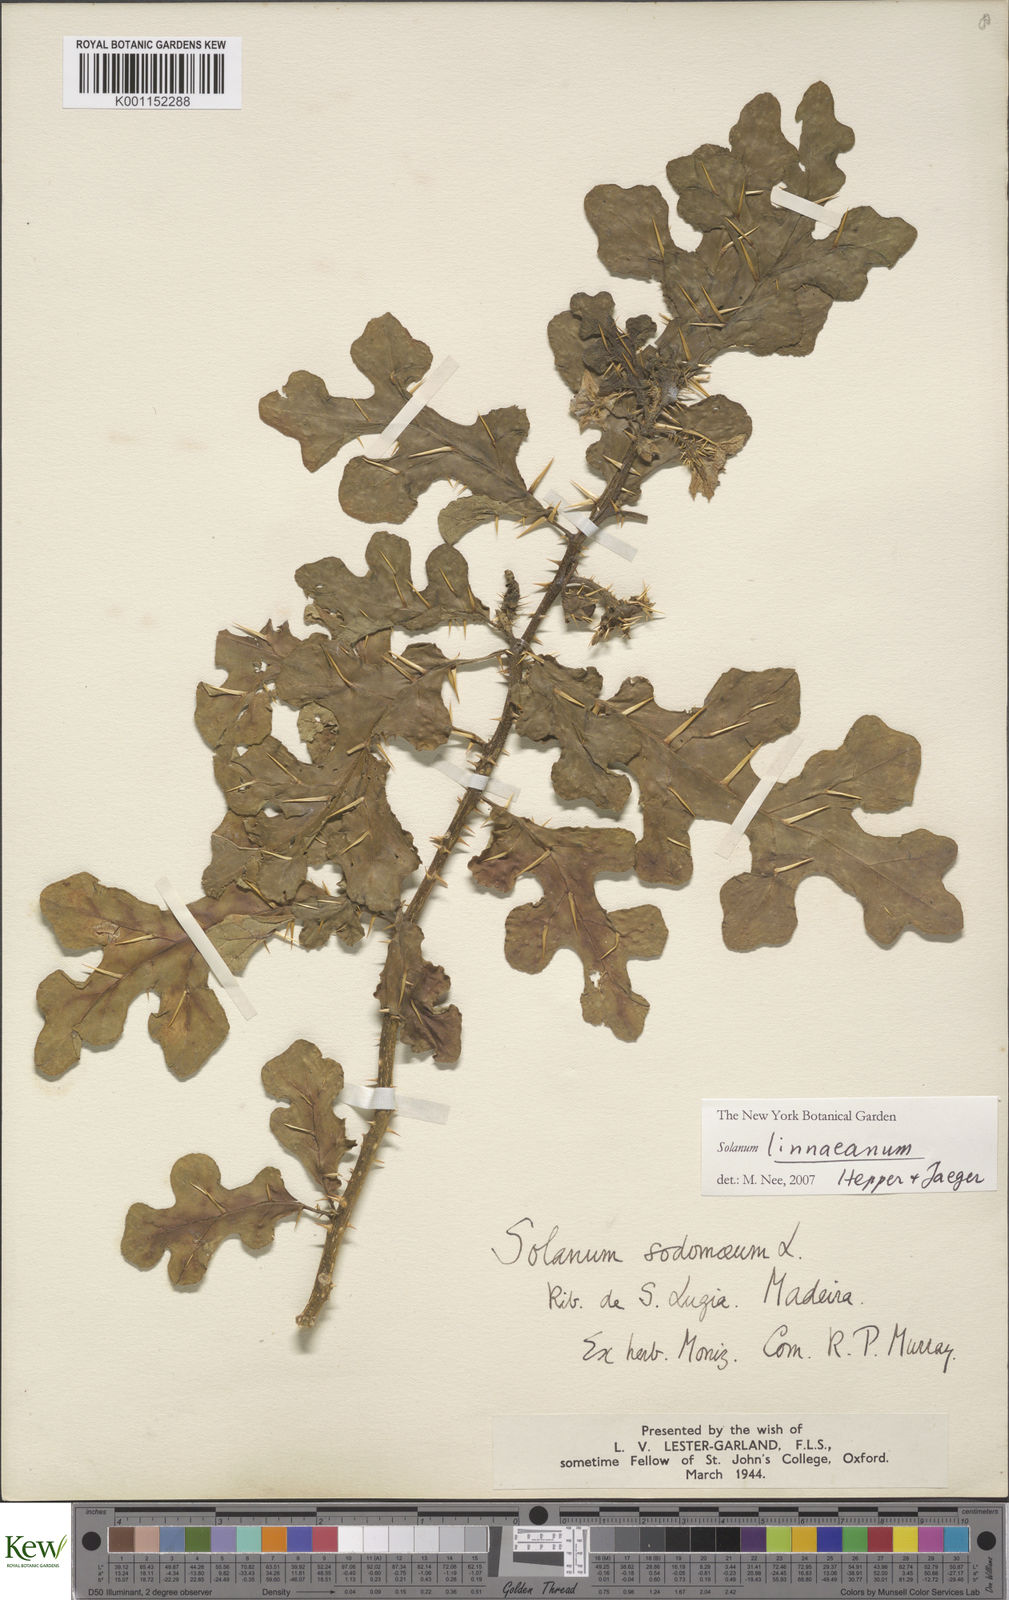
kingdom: Plantae
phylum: Tracheophyta
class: Magnoliopsida
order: Solanales
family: Solanaceae
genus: Solanum
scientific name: Solanum linnaeanum
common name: Nightshade
